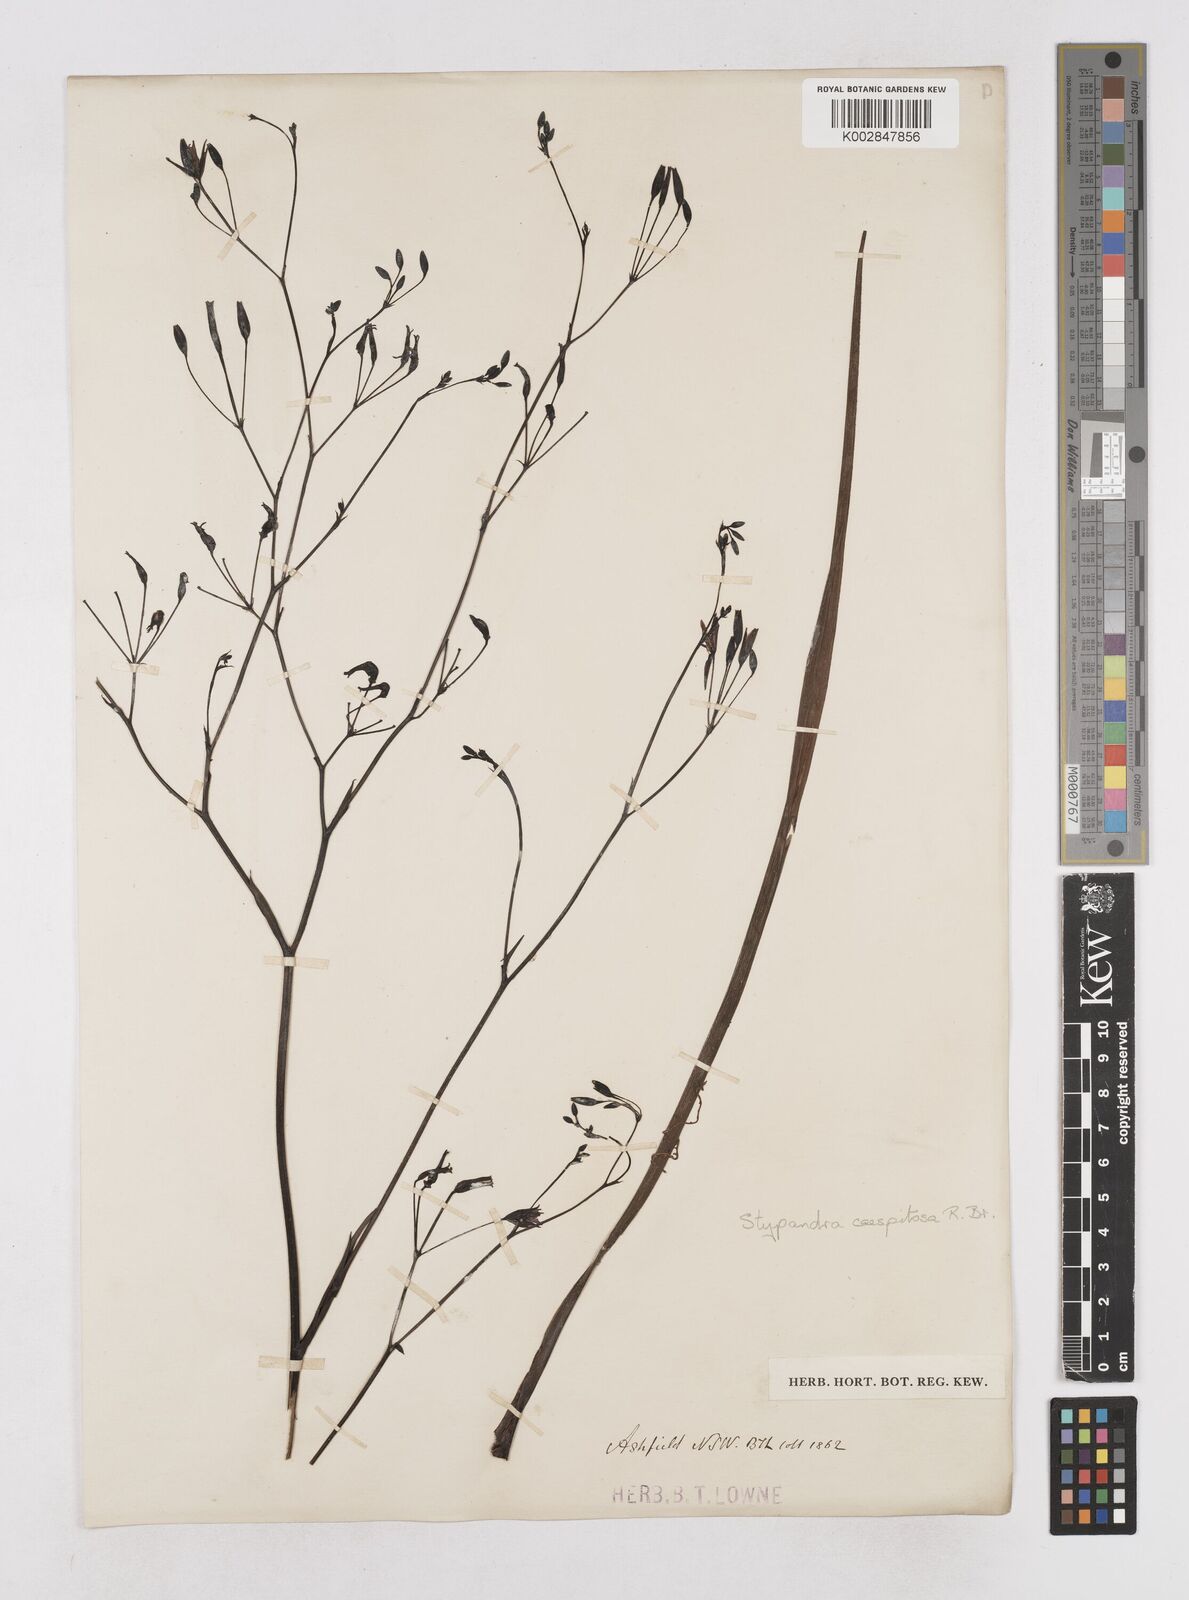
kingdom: Plantae
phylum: Tracheophyta
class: Liliopsida
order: Asparagales
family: Asphodelaceae
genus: Thelionema
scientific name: Thelionema caespitosum
